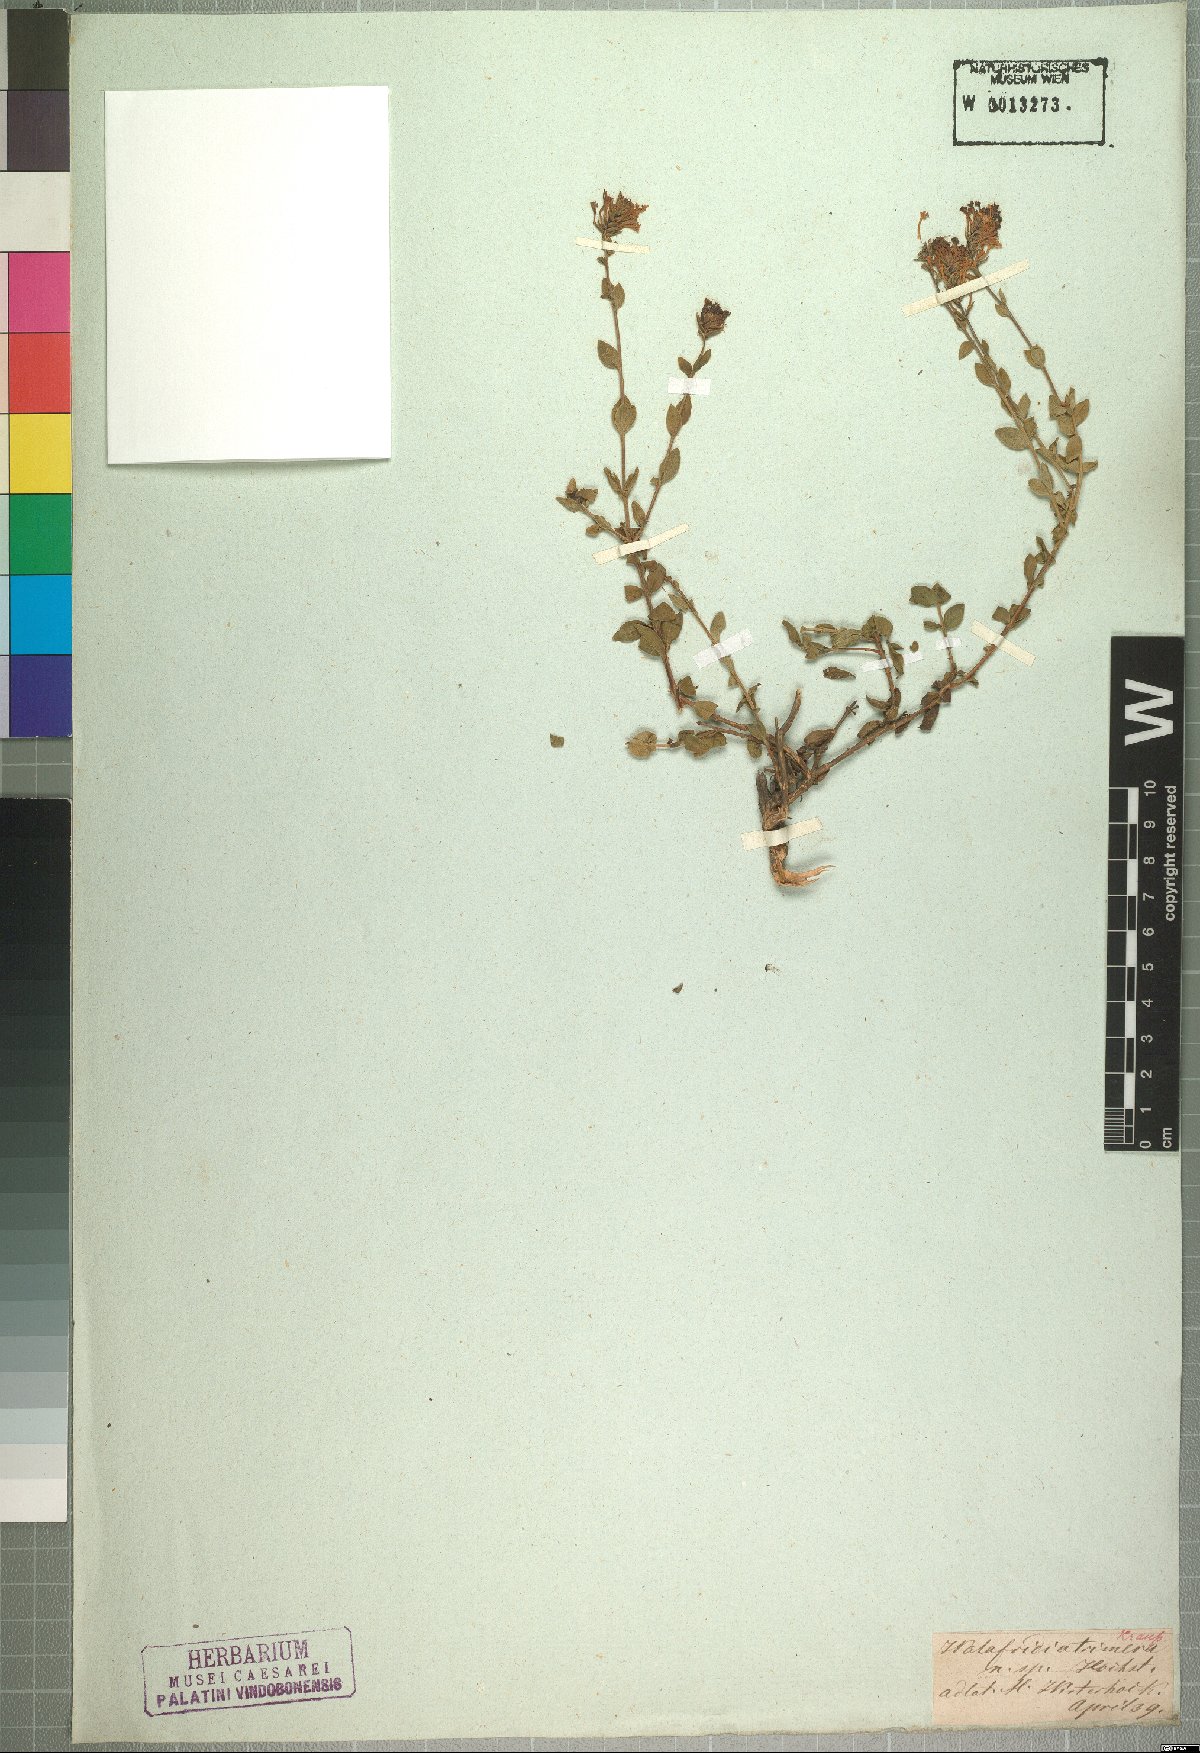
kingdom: Plantae
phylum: Tracheophyta
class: Magnoliopsida
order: Lamiales
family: Scrophulariaceae
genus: Selago
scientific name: Selago myrtifolia
